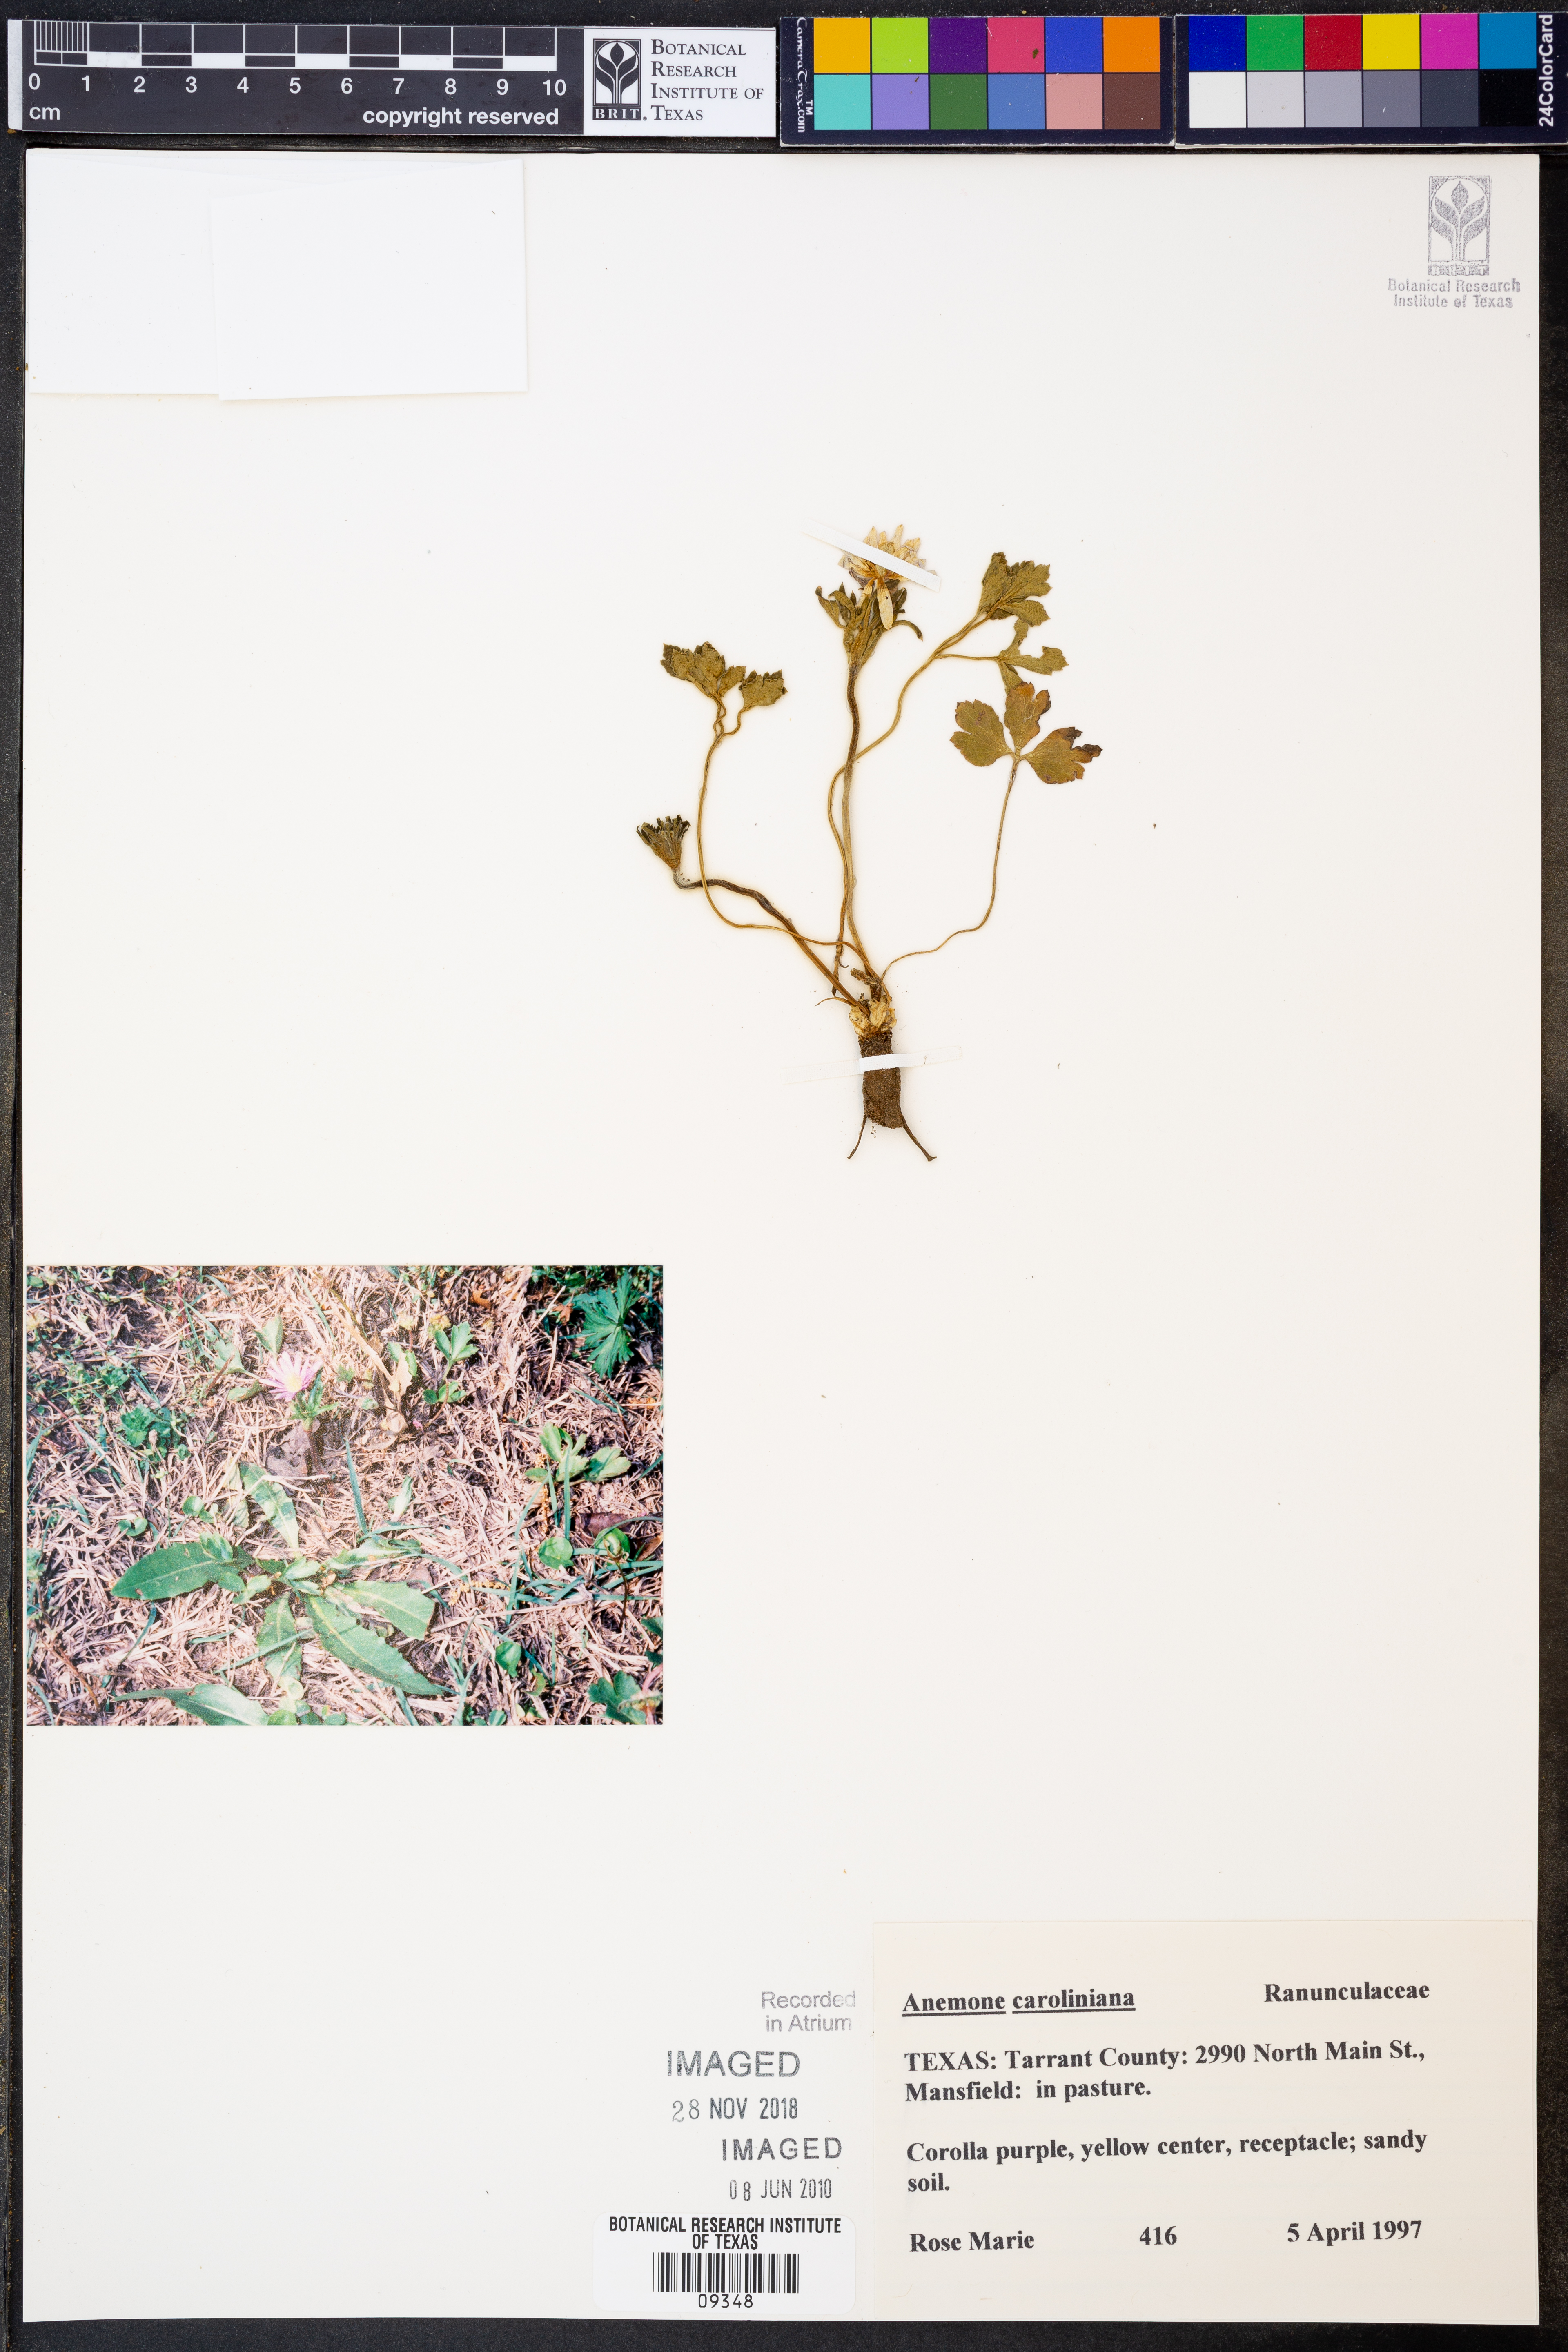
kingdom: Plantae
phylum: Tracheophyta
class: Magnoliopsida
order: Ranunculales
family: Ranunculaceae
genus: Anemone
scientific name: Anemone caroliniana
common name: Carolina anemone
